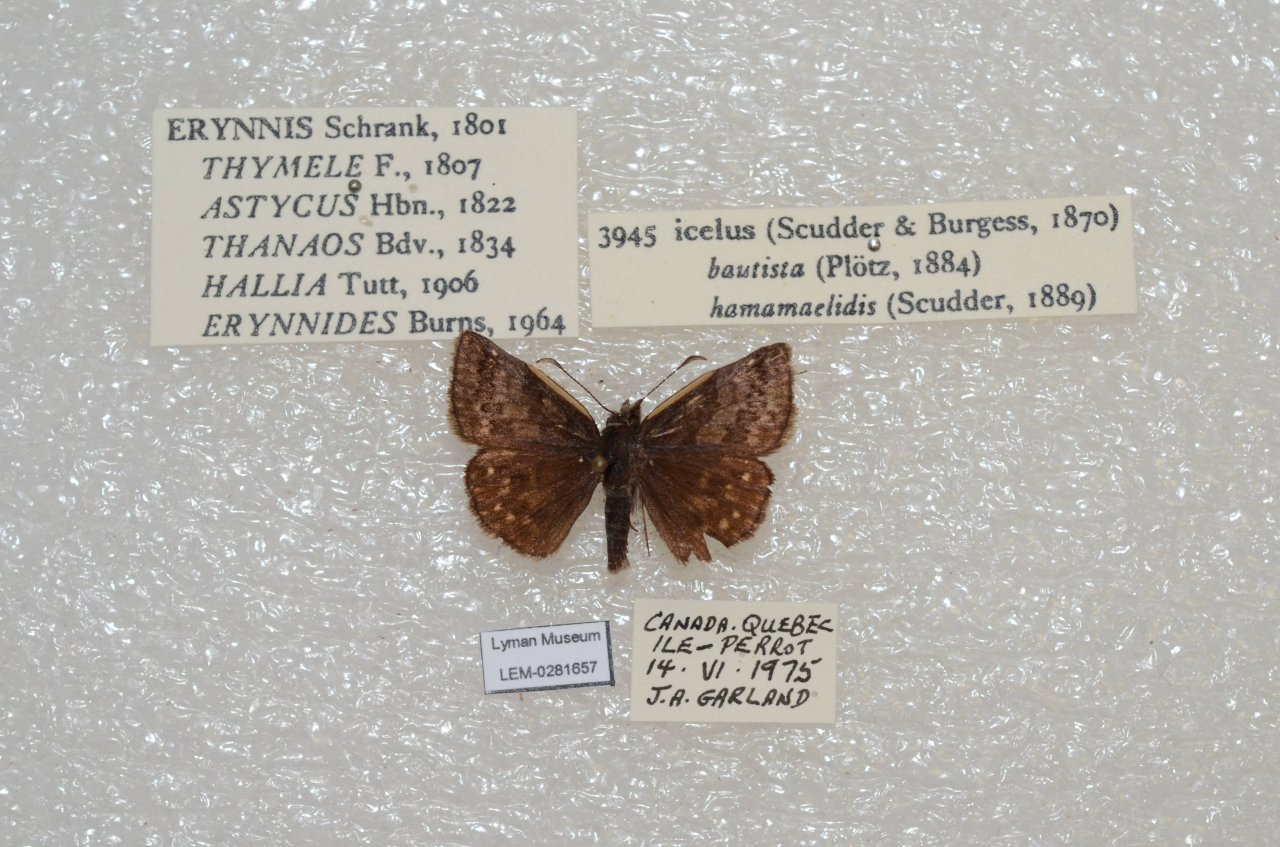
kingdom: Animalia
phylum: Arthropoda
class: Insecta
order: Lepidoptera
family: Hesperiidae
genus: Erynnis
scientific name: Erynnis icelus
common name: Dreamy Duskywing
